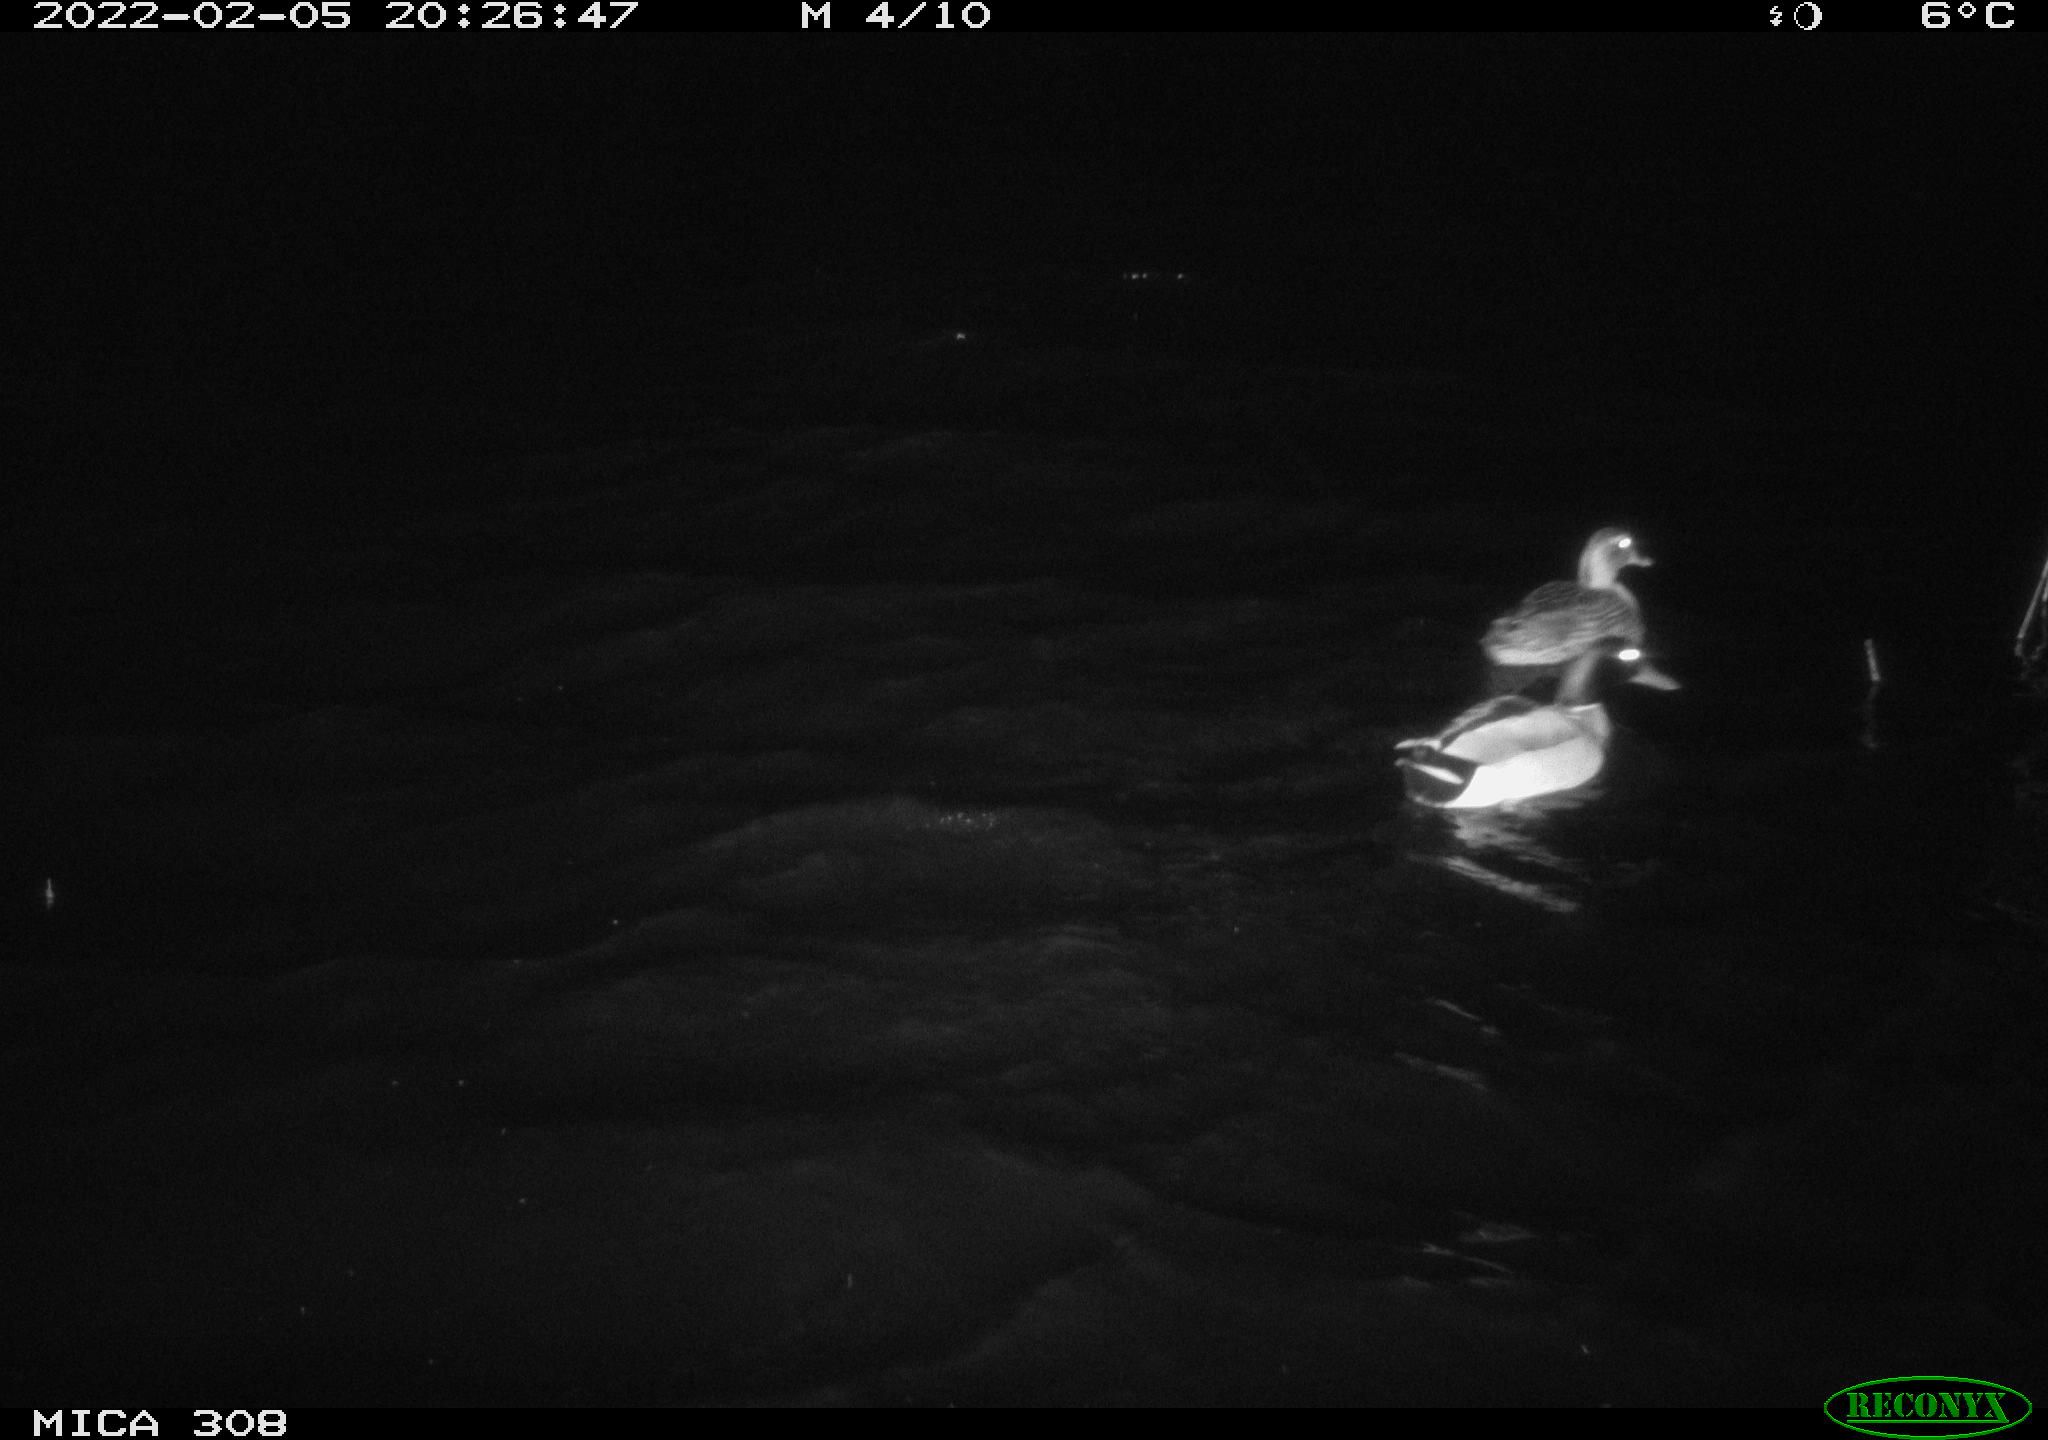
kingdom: Animalia
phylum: Chordata
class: Aves
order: Anseriformes
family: Anatidae
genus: Anas
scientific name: Anas platyrhynchos
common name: Mallard
